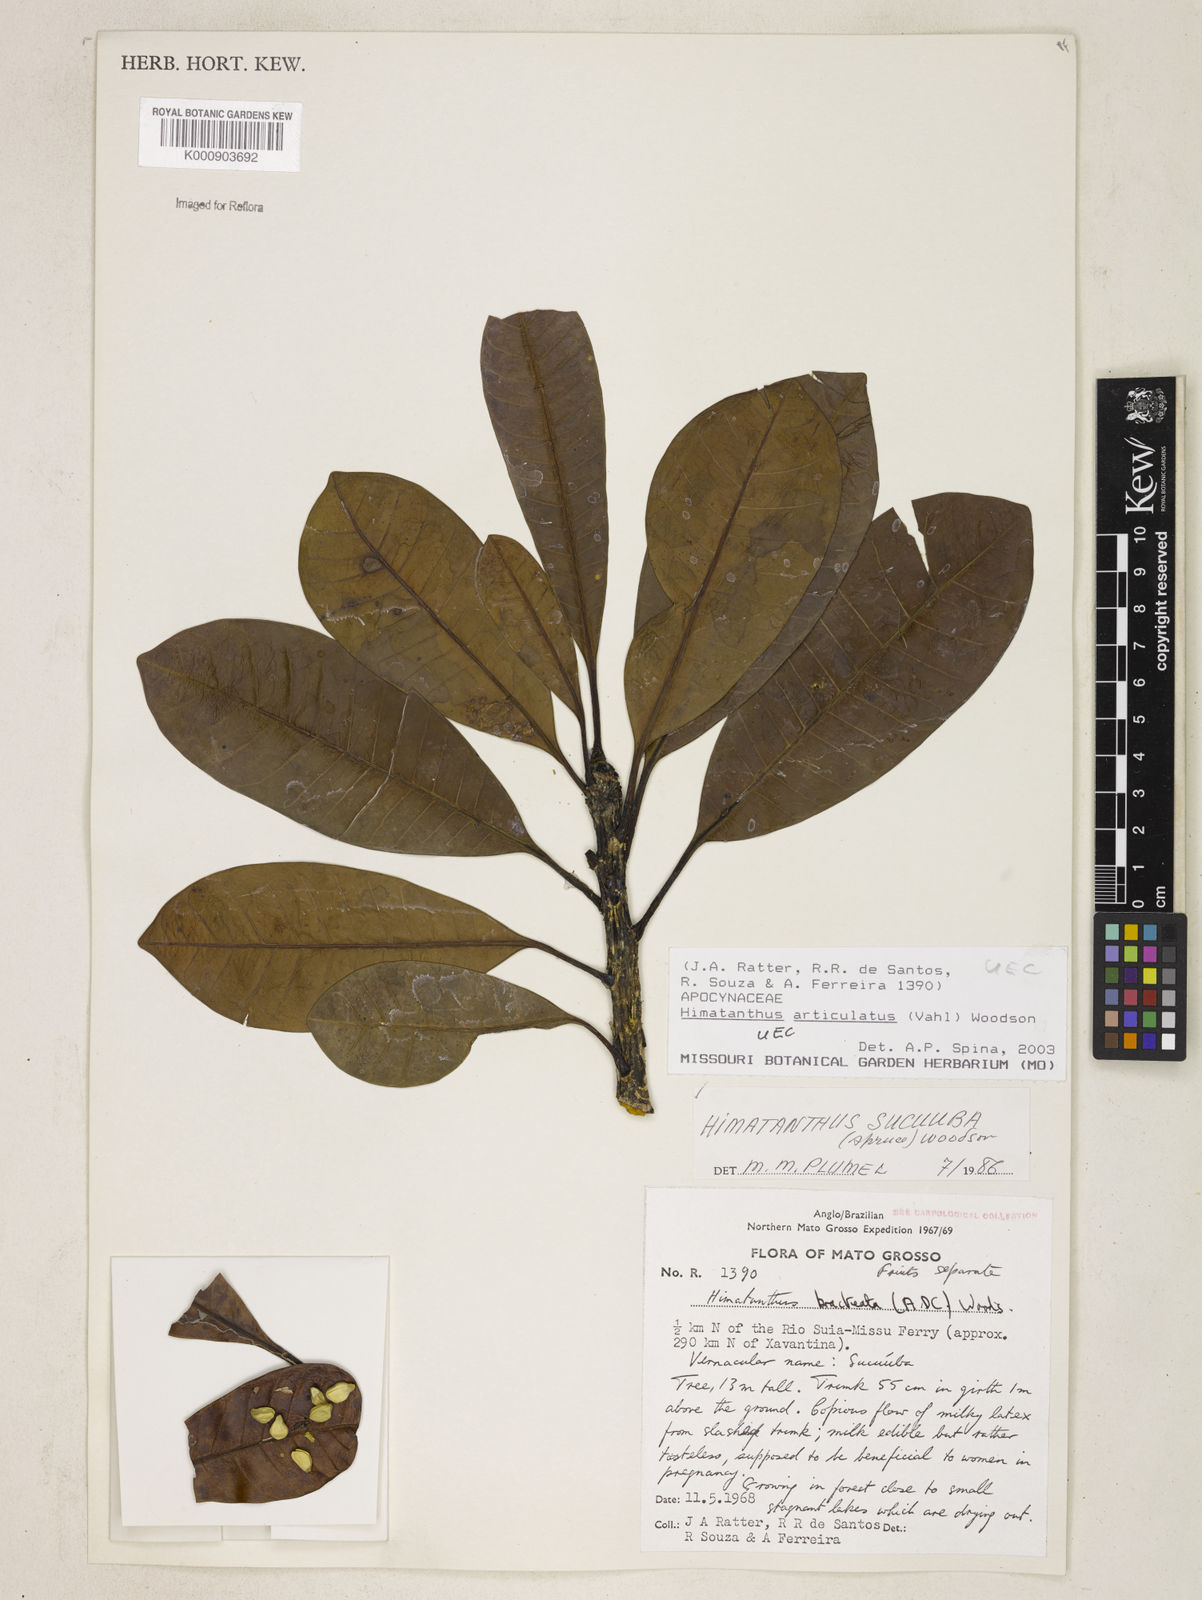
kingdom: Plantae
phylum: Tracheophyta
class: Magnoliopsida
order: Gentianales
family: Apocynaceae
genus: Himatanthus
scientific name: Himatanthus articulatus
